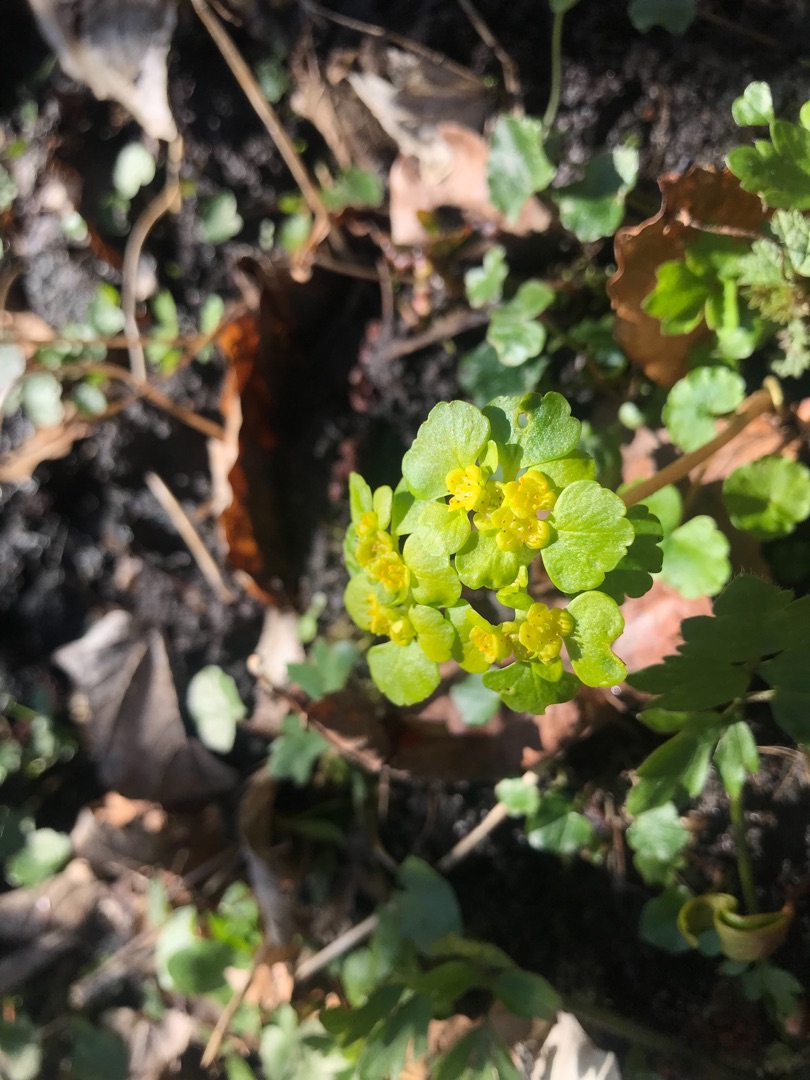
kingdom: Plantae
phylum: Tracheophyta
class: Magnoliopsida
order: Saxifragales
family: Saxifragaceae
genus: Chrysosplenium
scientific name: Chrysosplenium alternifolium
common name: Almindelig milturt
